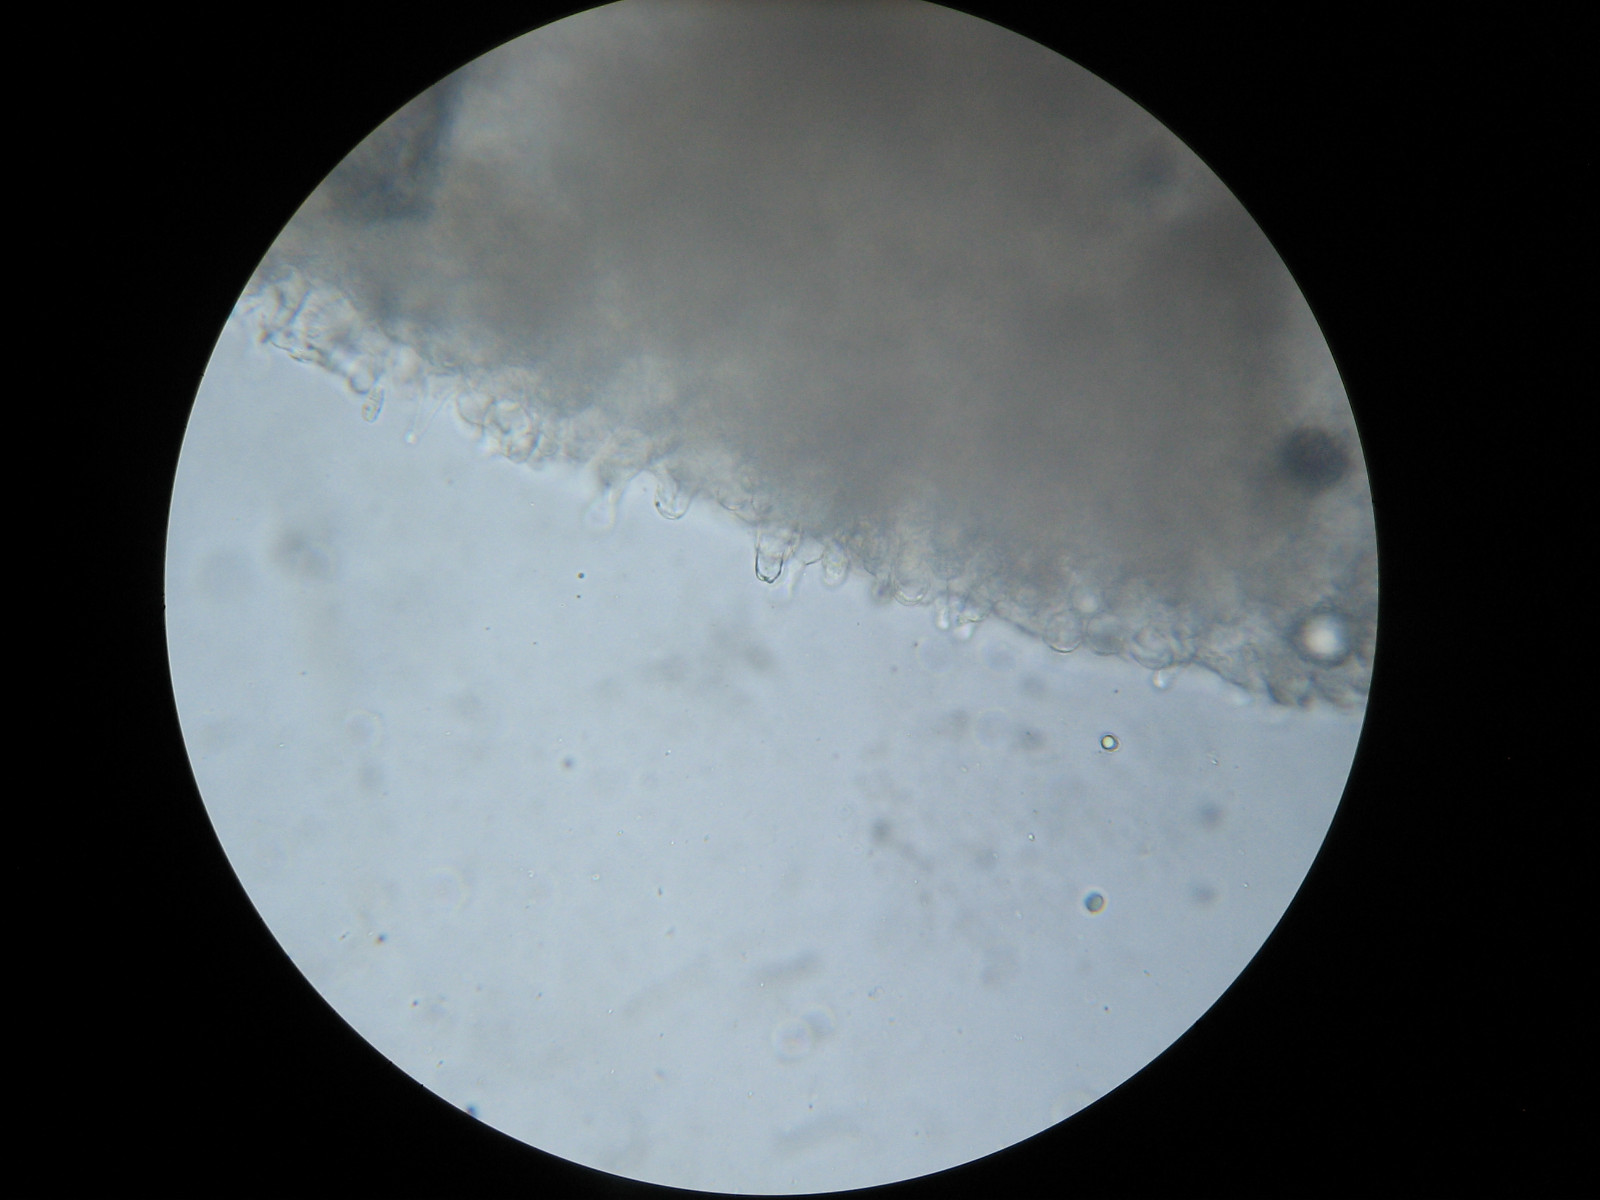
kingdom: Fungi
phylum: Basidiomycota
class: Agaricomycetes
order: Agaricales
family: Mycenaceae
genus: Mycena
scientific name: Mycena silvae-nigrae
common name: tidlig huesvamp
